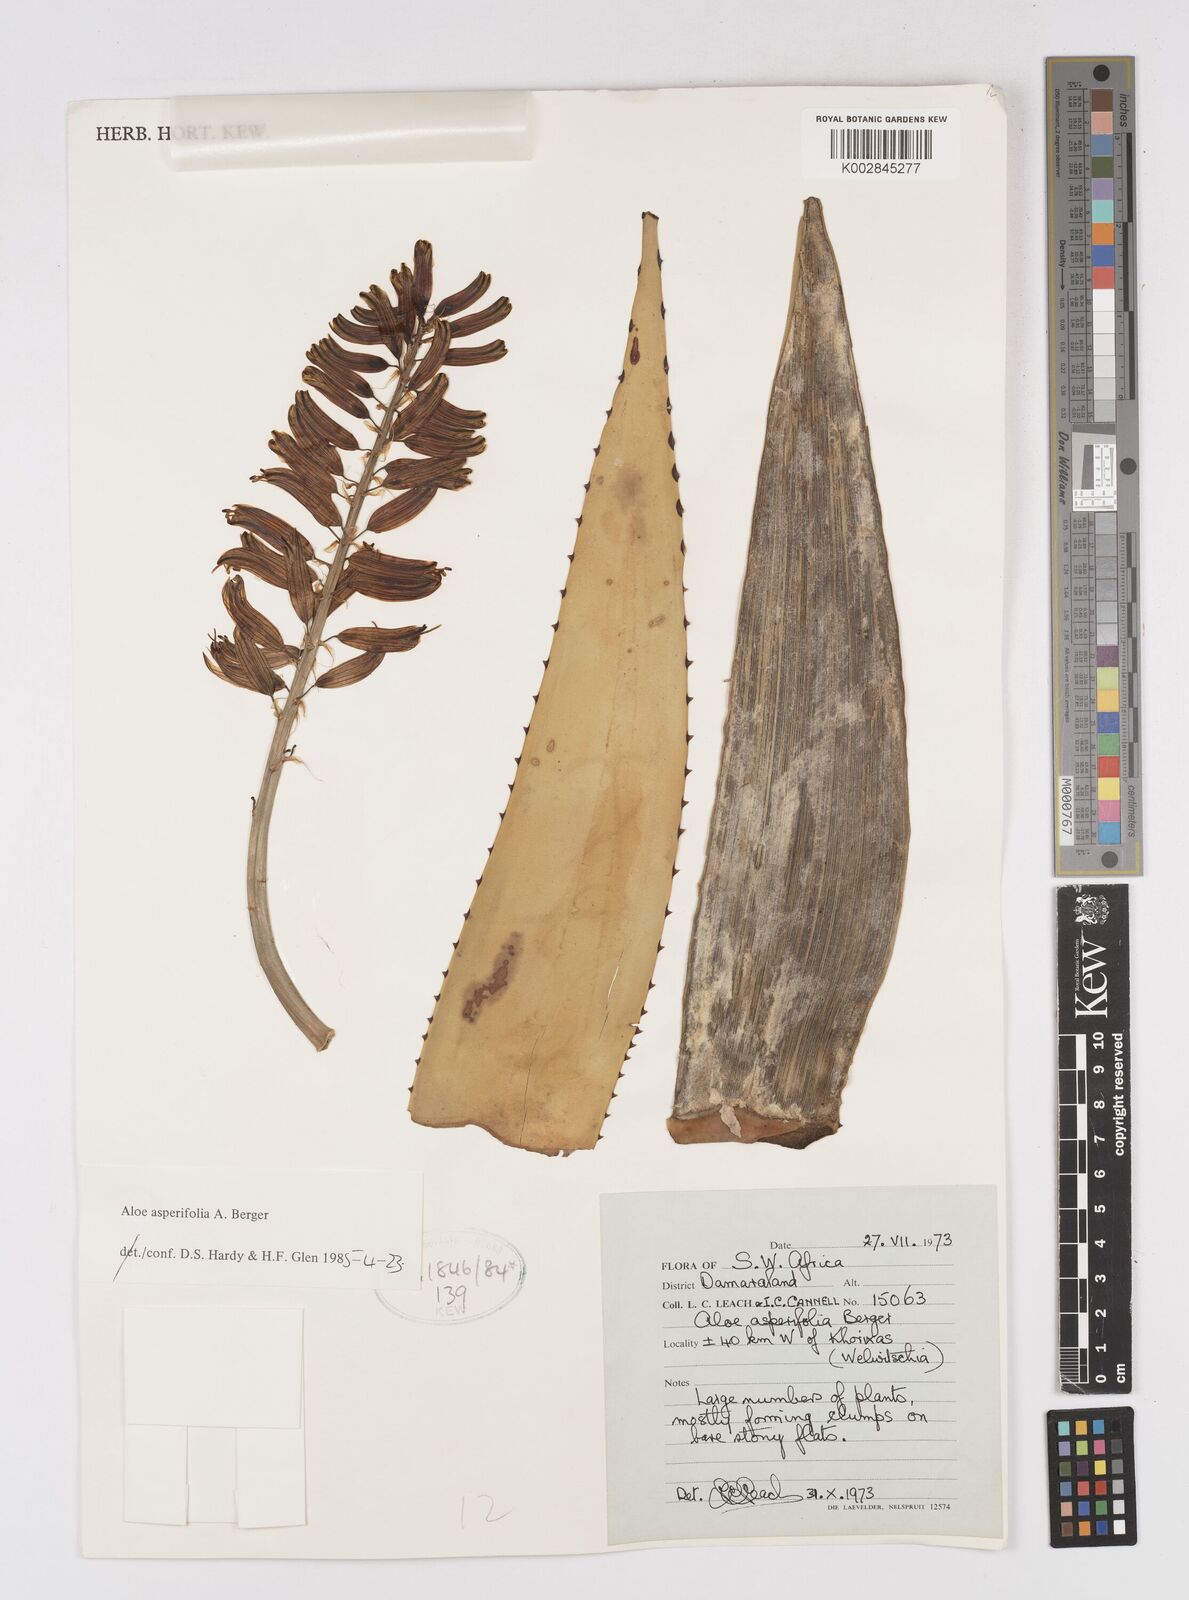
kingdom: Plantae
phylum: Tracheophyta
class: Liliopsida
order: Asparagales
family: Asphodelaceae
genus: Aloe
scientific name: Aloe asperifolia
